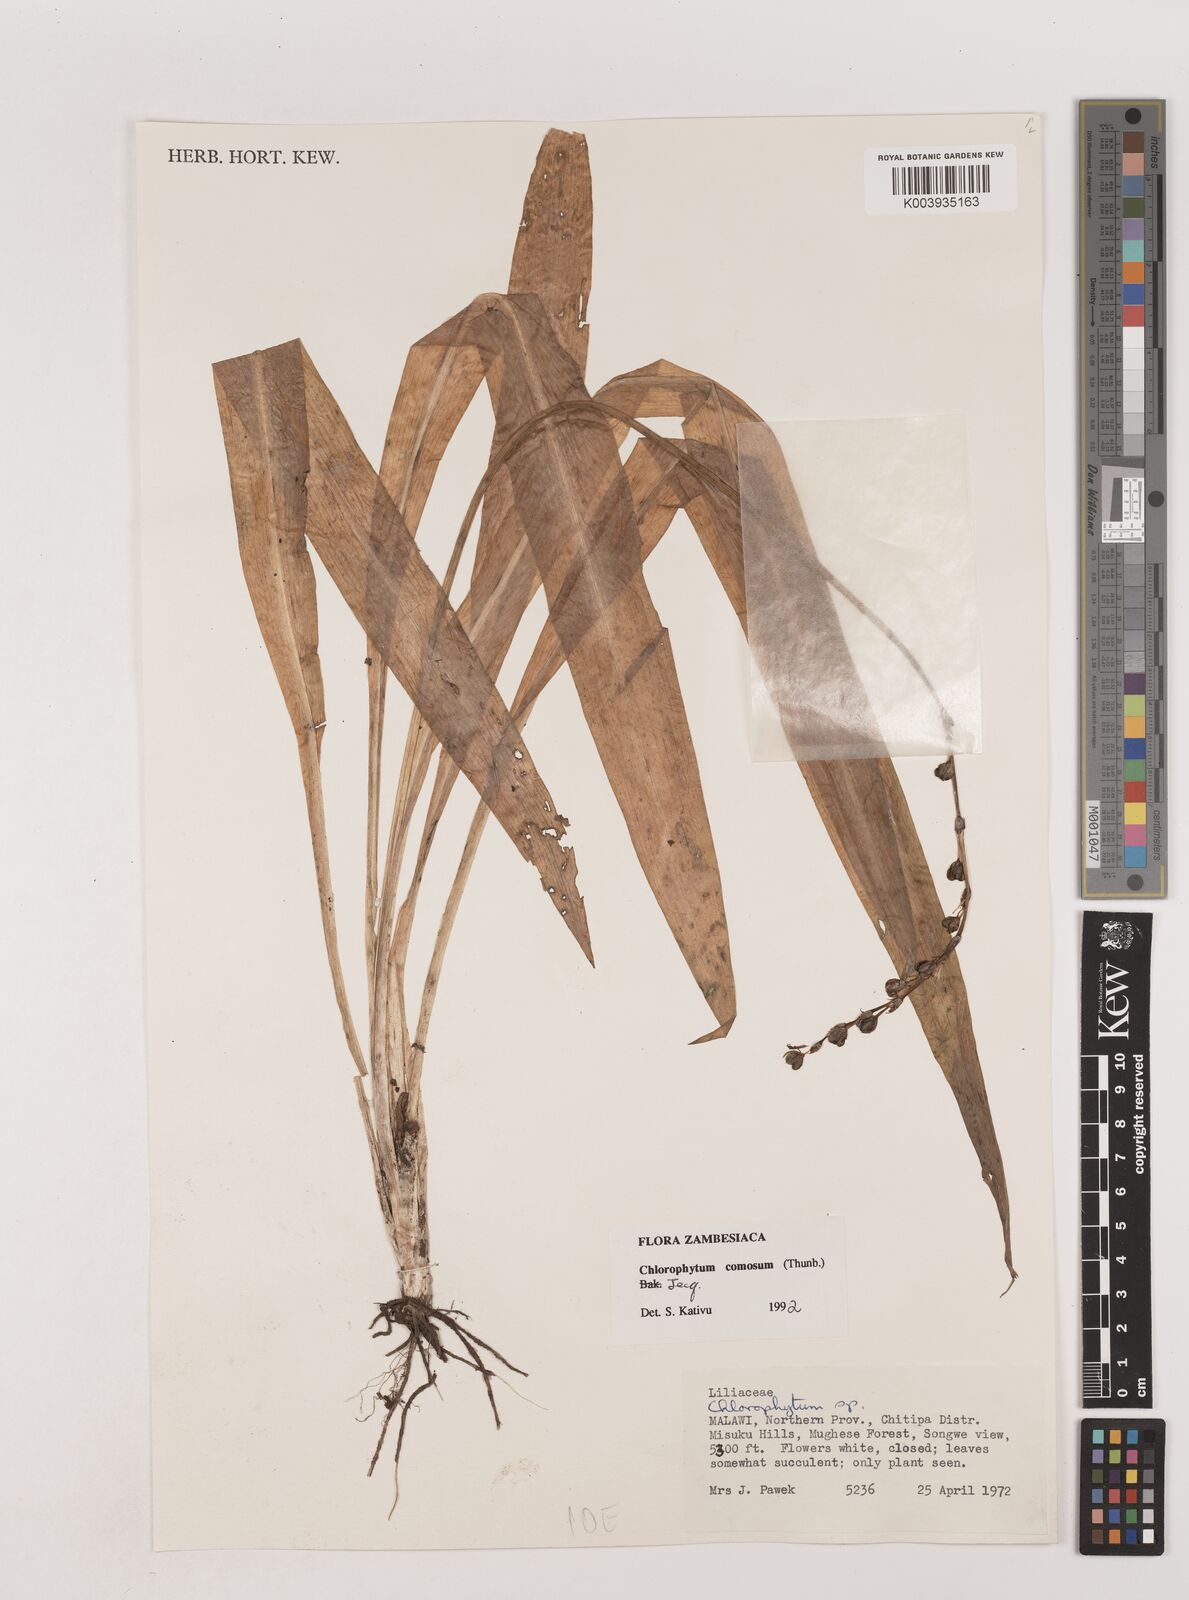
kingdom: Plantae
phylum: Tracheophyta
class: Liliopsida
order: Asparagales
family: Asparagaceae
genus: Chlorophytum
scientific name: Chlorophytum comosum
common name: Spider plant
